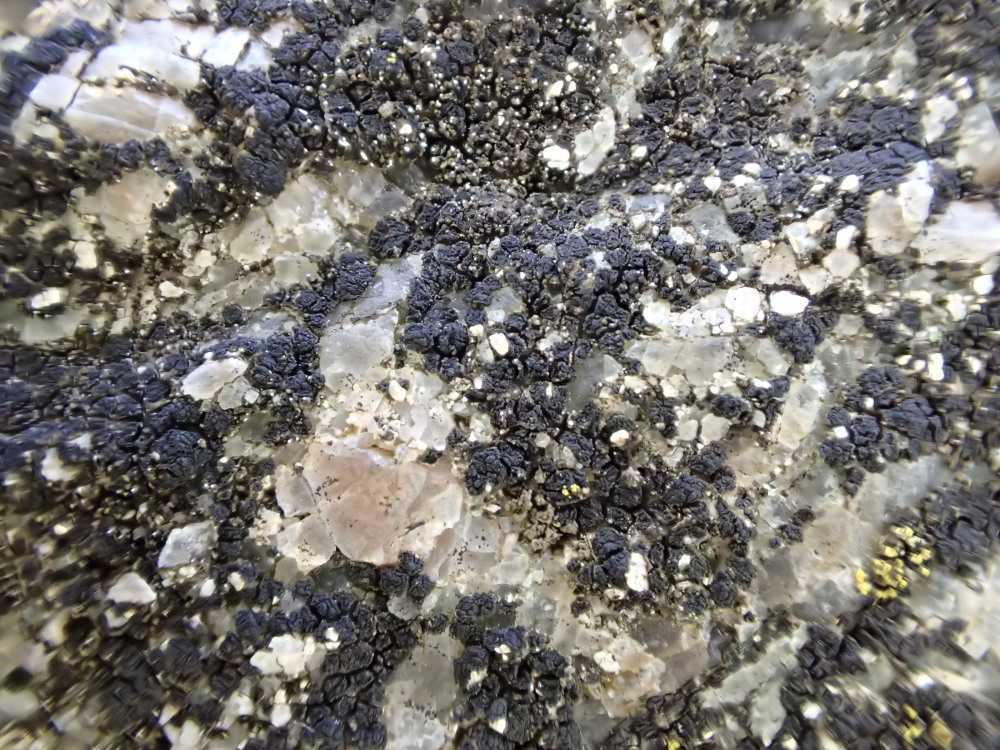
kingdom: Fungi
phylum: Ascomycota
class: Lecanoromycetes
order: Acarosporales
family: Acarosporaceae
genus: Acarospora
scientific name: Acarospora privigna
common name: sort foldekantlav
